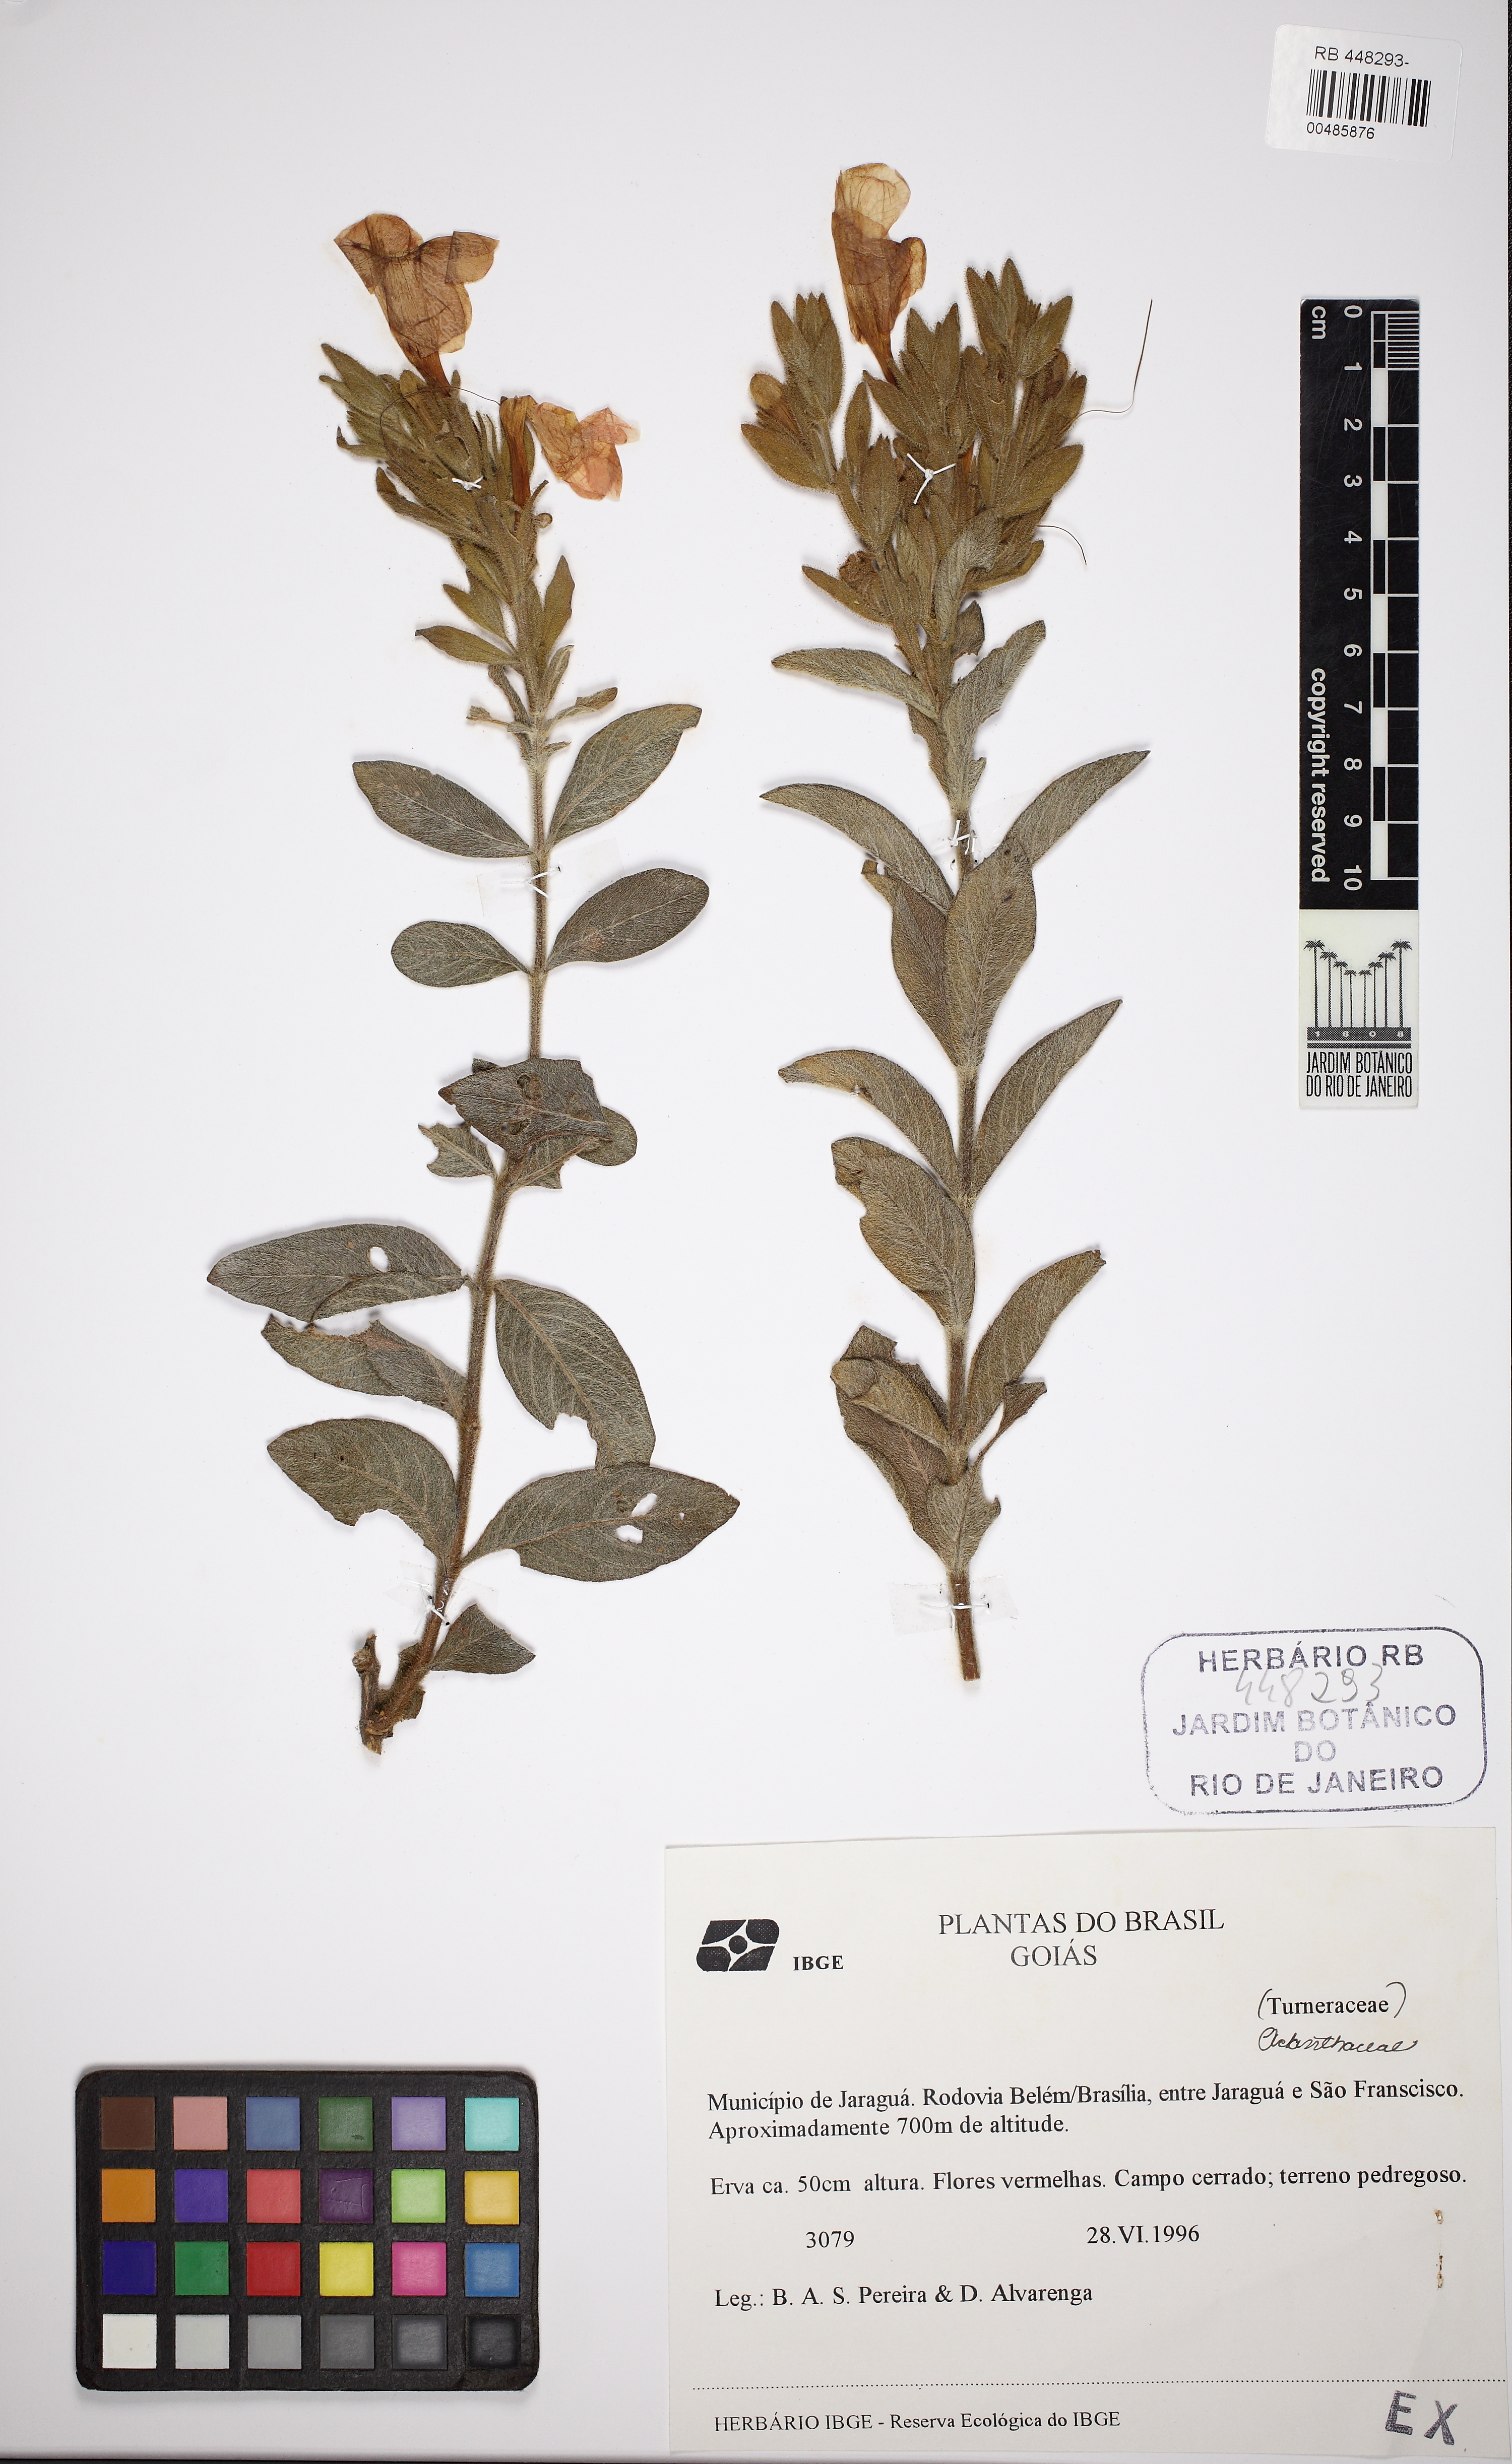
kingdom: Plantae
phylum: Tracheophyta
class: Magnoliopsida
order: Lamiales
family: Acanthaceae
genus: Ruellia
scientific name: Ruellia adenocalyx
